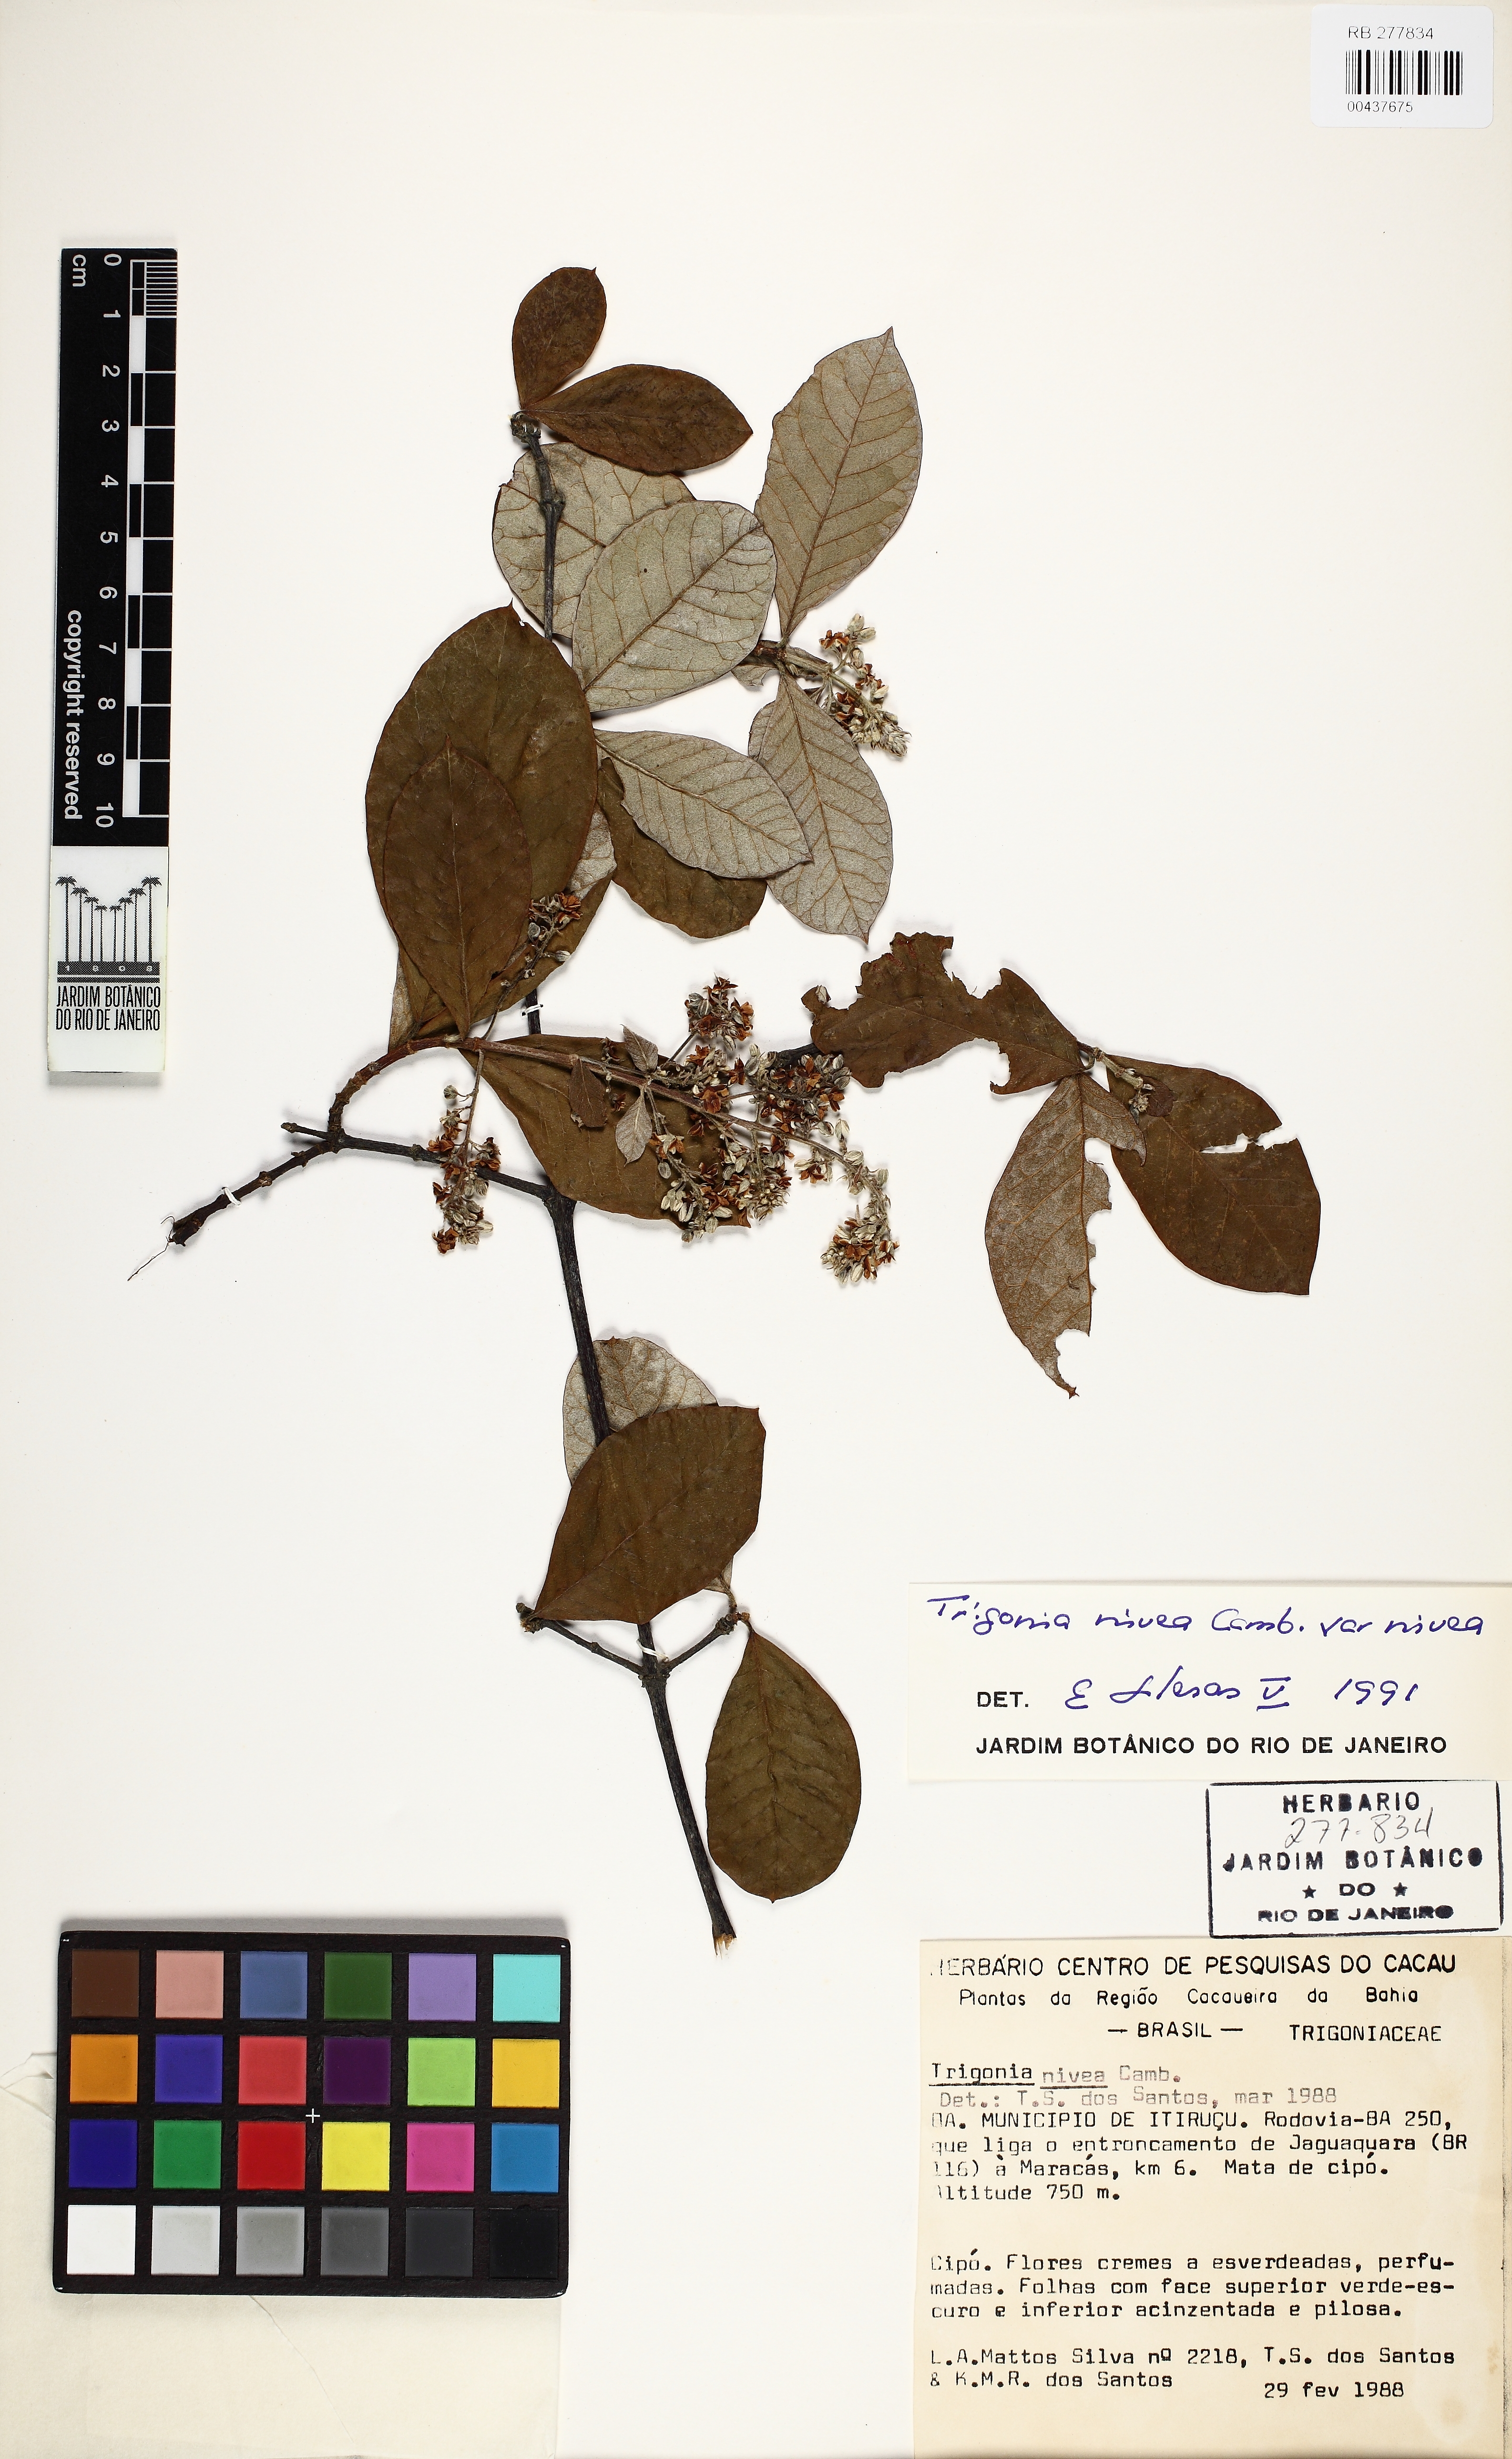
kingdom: Plantae
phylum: Tracheophyta
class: Magnoliopsida
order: Malpighiales
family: Trigoniaceae
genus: Trigonia
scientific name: Trigonia nivea
